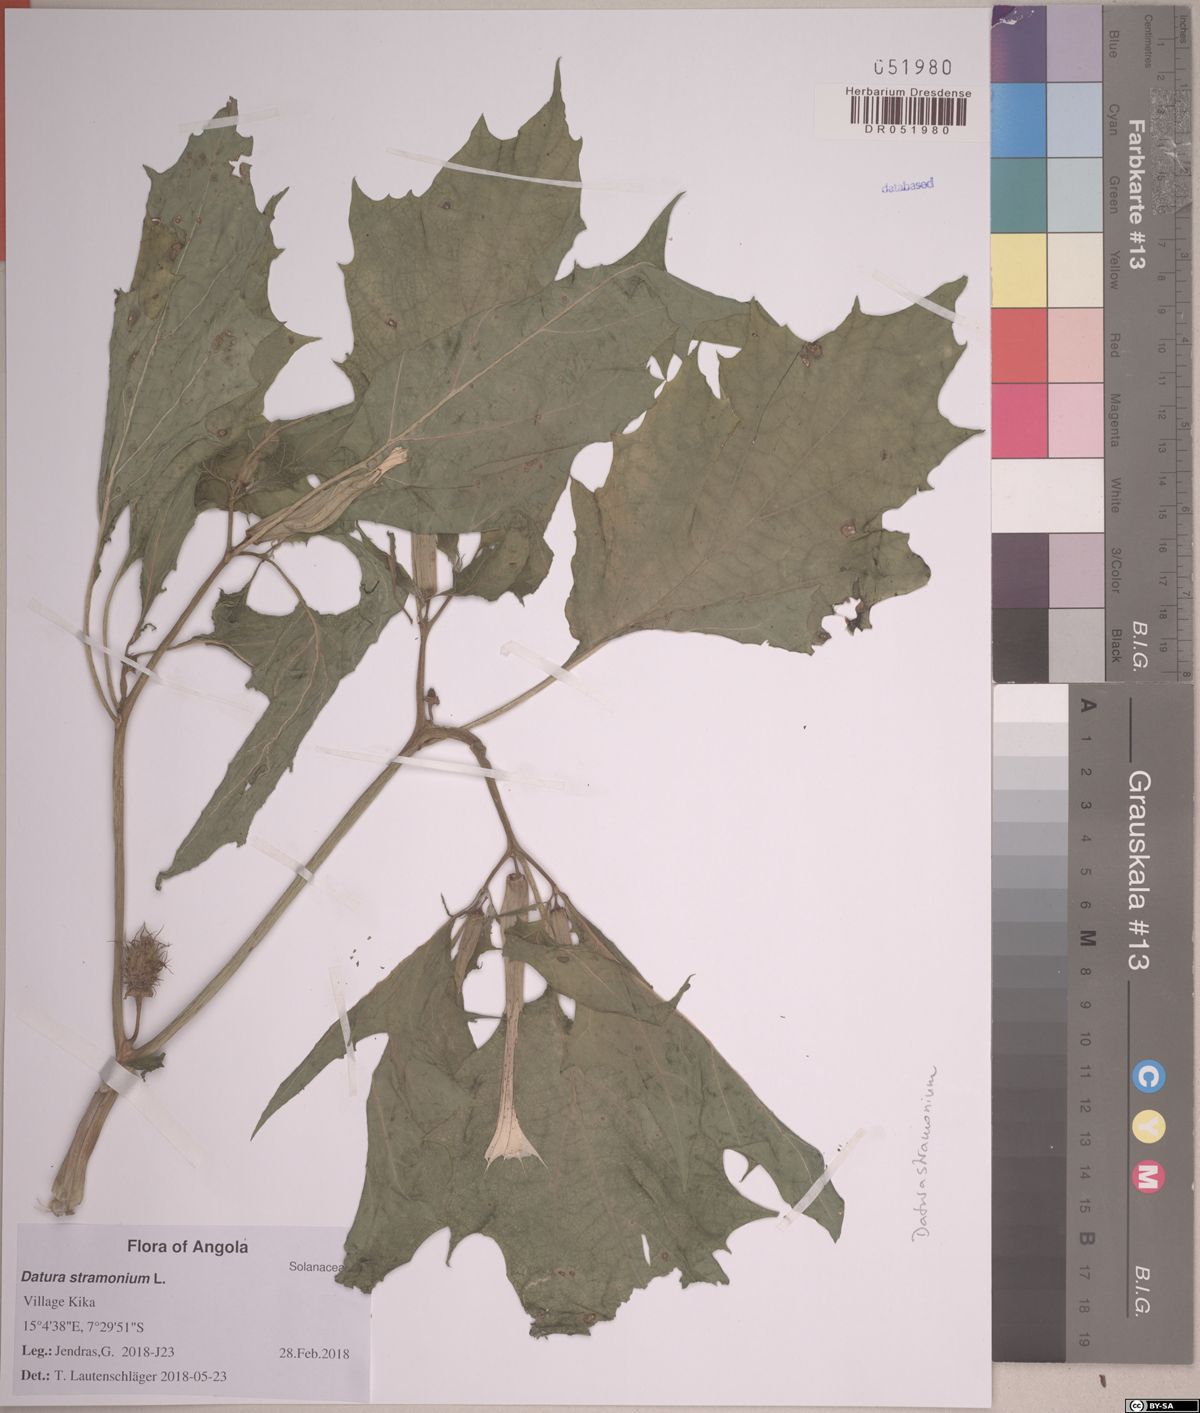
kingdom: Plantae
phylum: Tracheophyta
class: Magnoliopsida
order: Solanales
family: Solanaceae
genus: Datura
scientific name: Datura stramonium
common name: Thorn-apple
